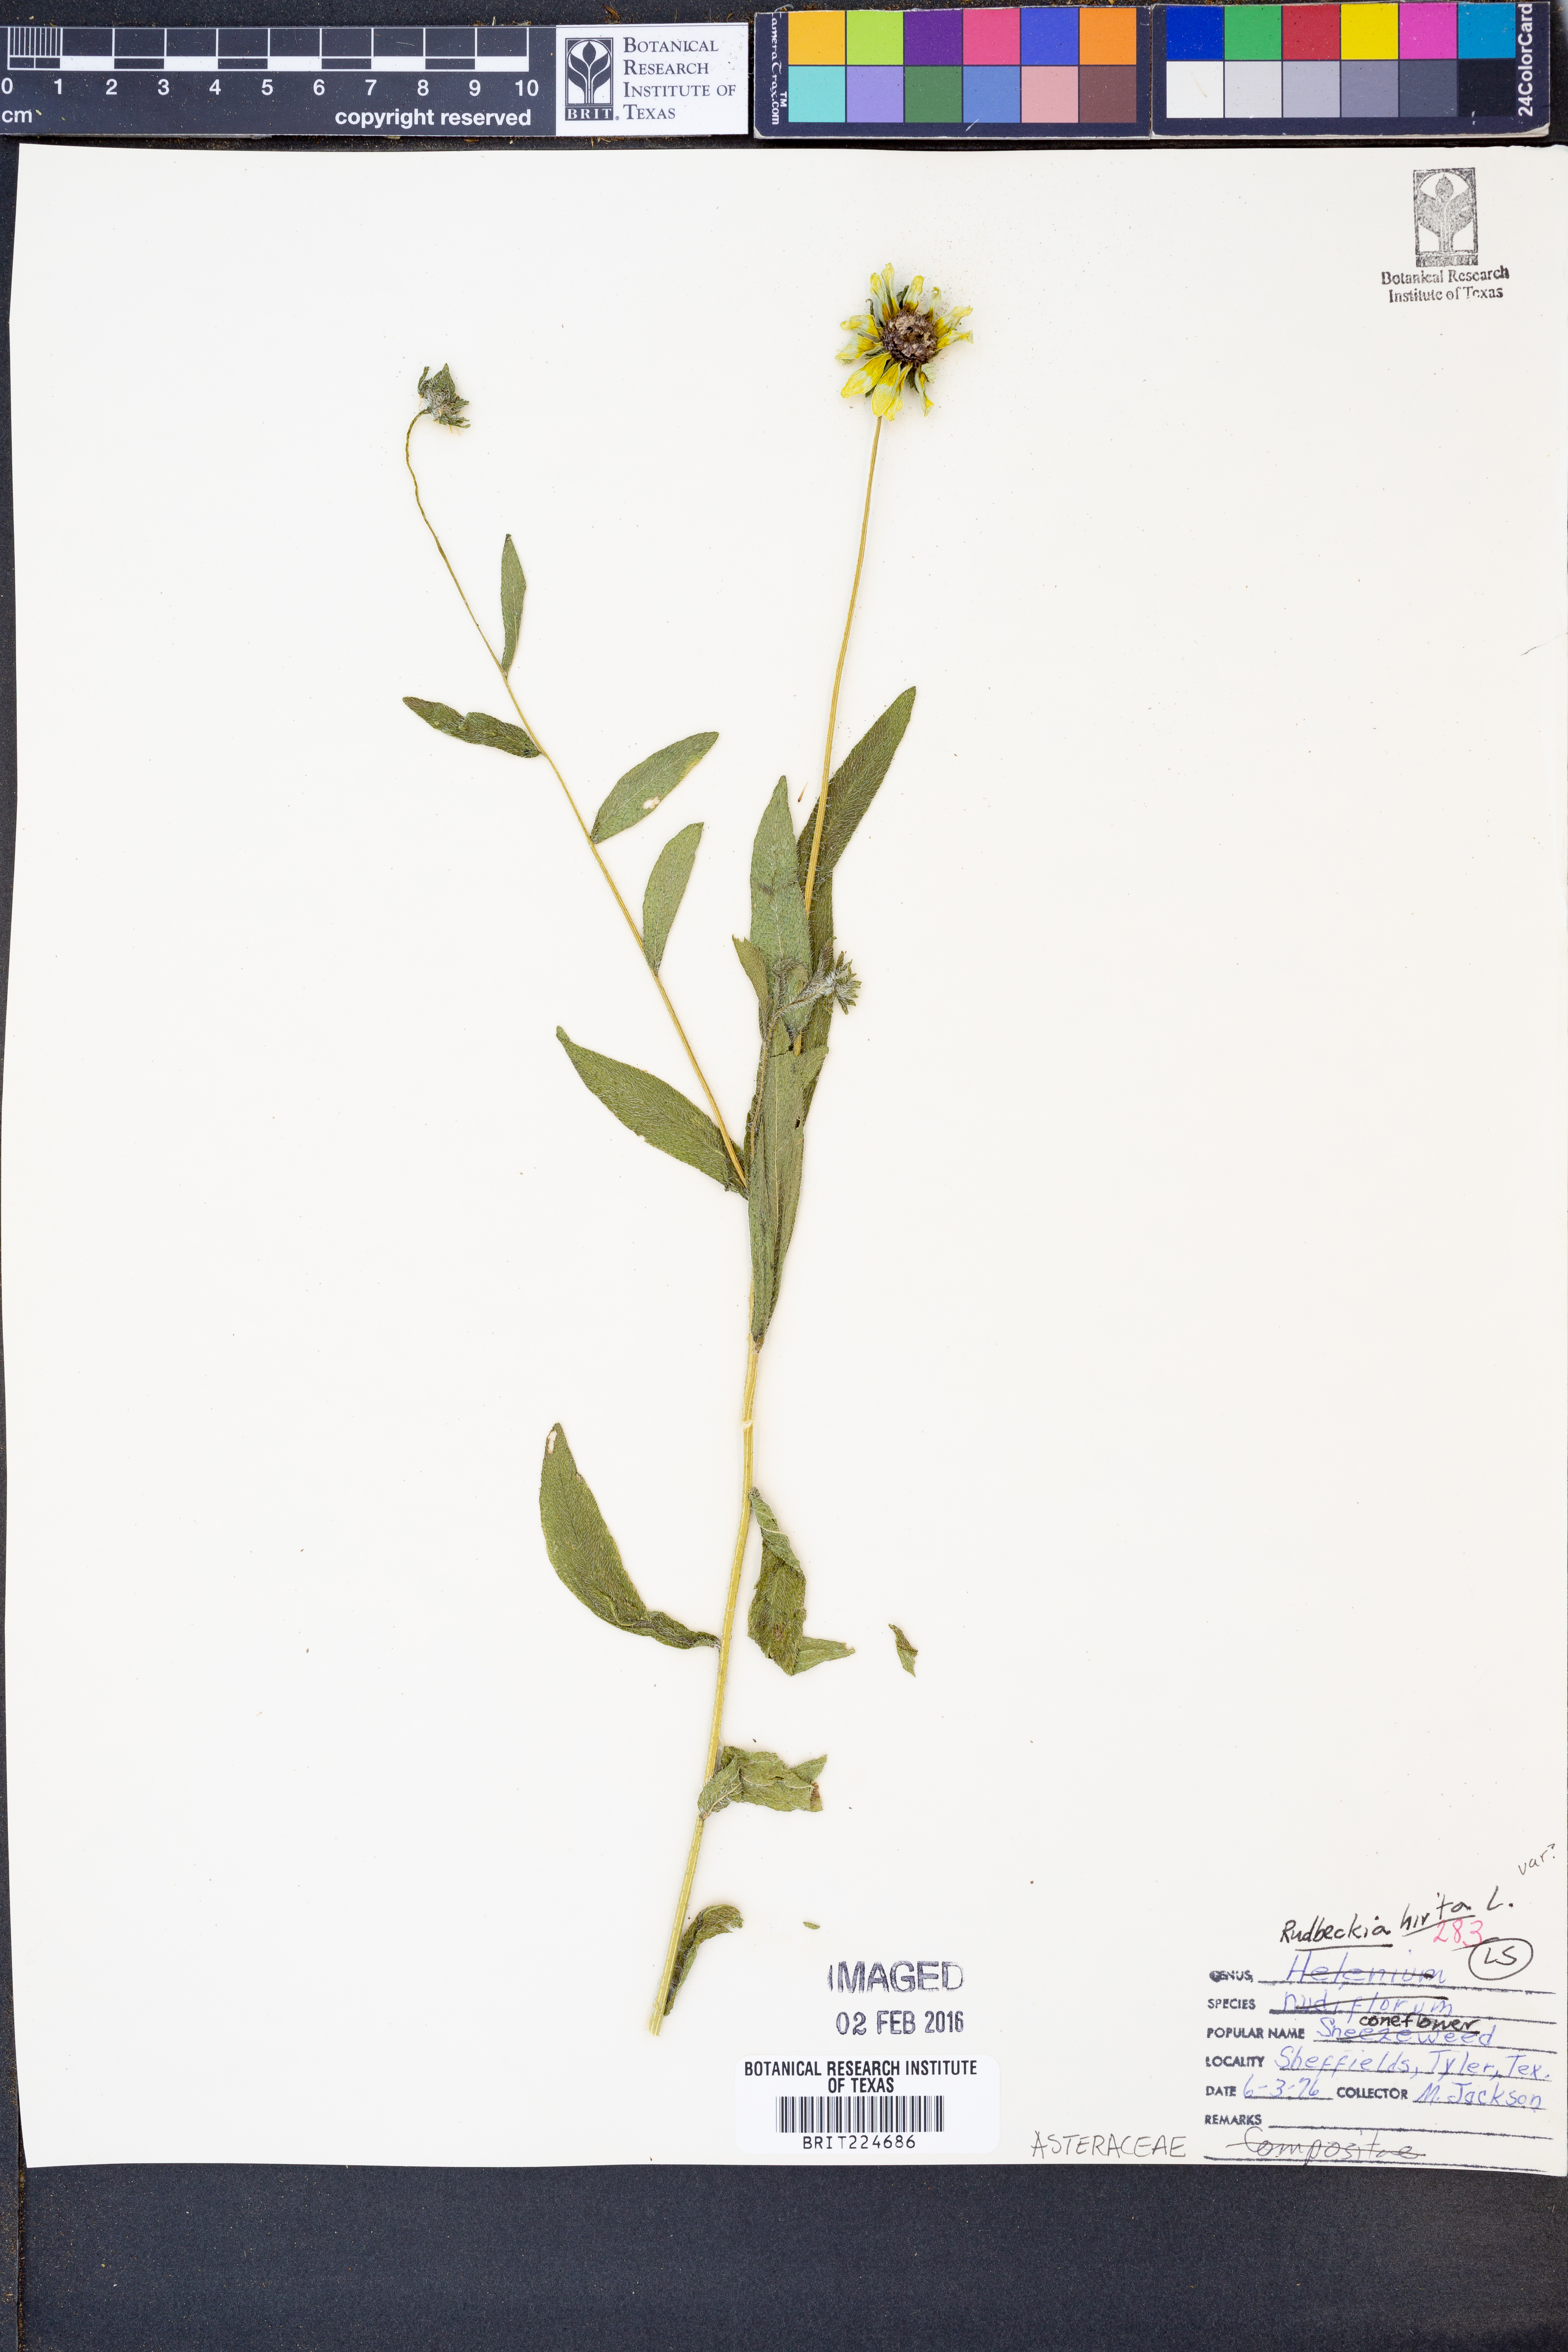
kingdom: Plantae
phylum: Tracheophyta
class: Magnoliopsida
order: Asterales
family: Asteraceae
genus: Rudbeckia
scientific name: Rudbeckia hirta
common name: Black-eyed-susan
